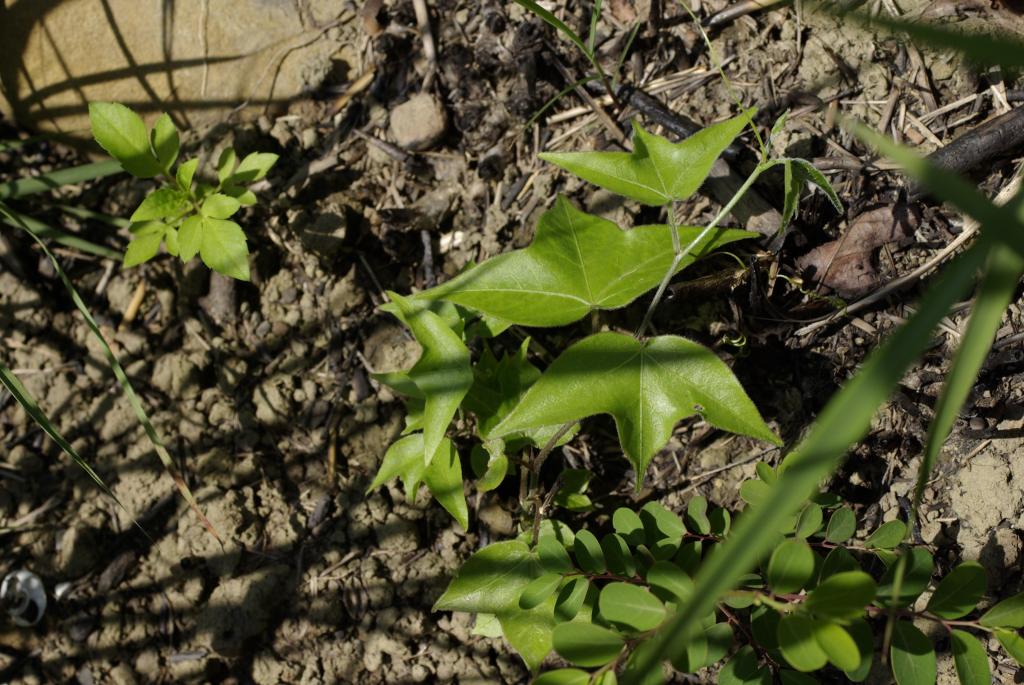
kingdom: Plantae
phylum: Tracheophyta
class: Magnoliopsida
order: Malpighiales
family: Passifloraceae
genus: Passiflora
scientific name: Passiflora suberosa
